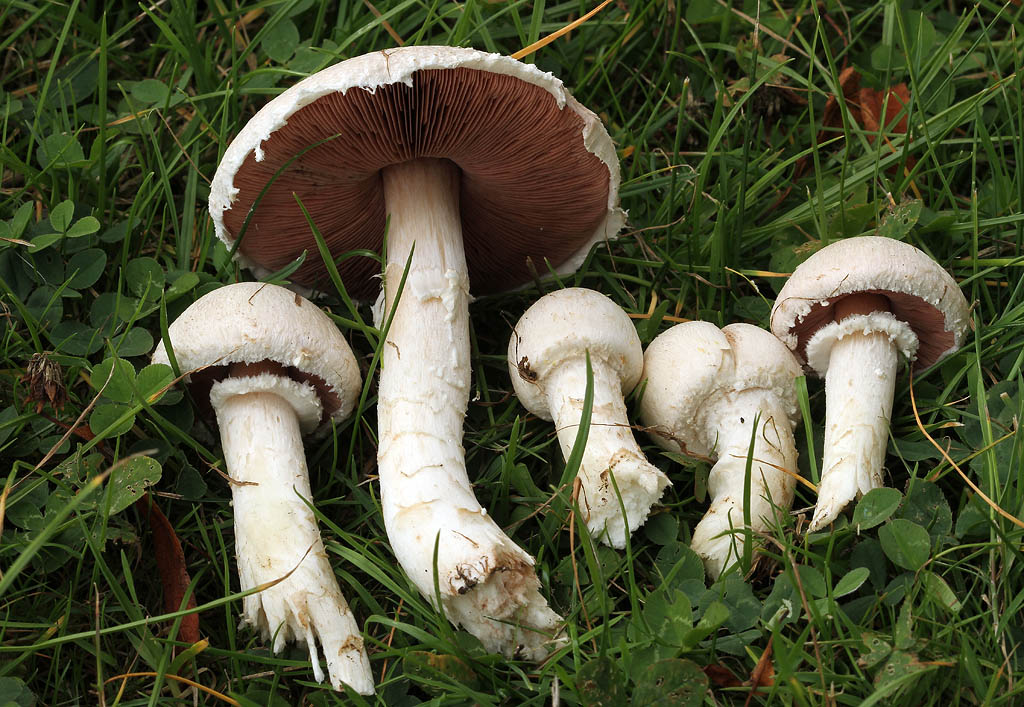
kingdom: Fungi
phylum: Basidiomycota
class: Agaricomycetes
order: Agaricales
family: Agaricaceae
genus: Agaricus
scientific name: Agaricus campestris
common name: mark-champignon
